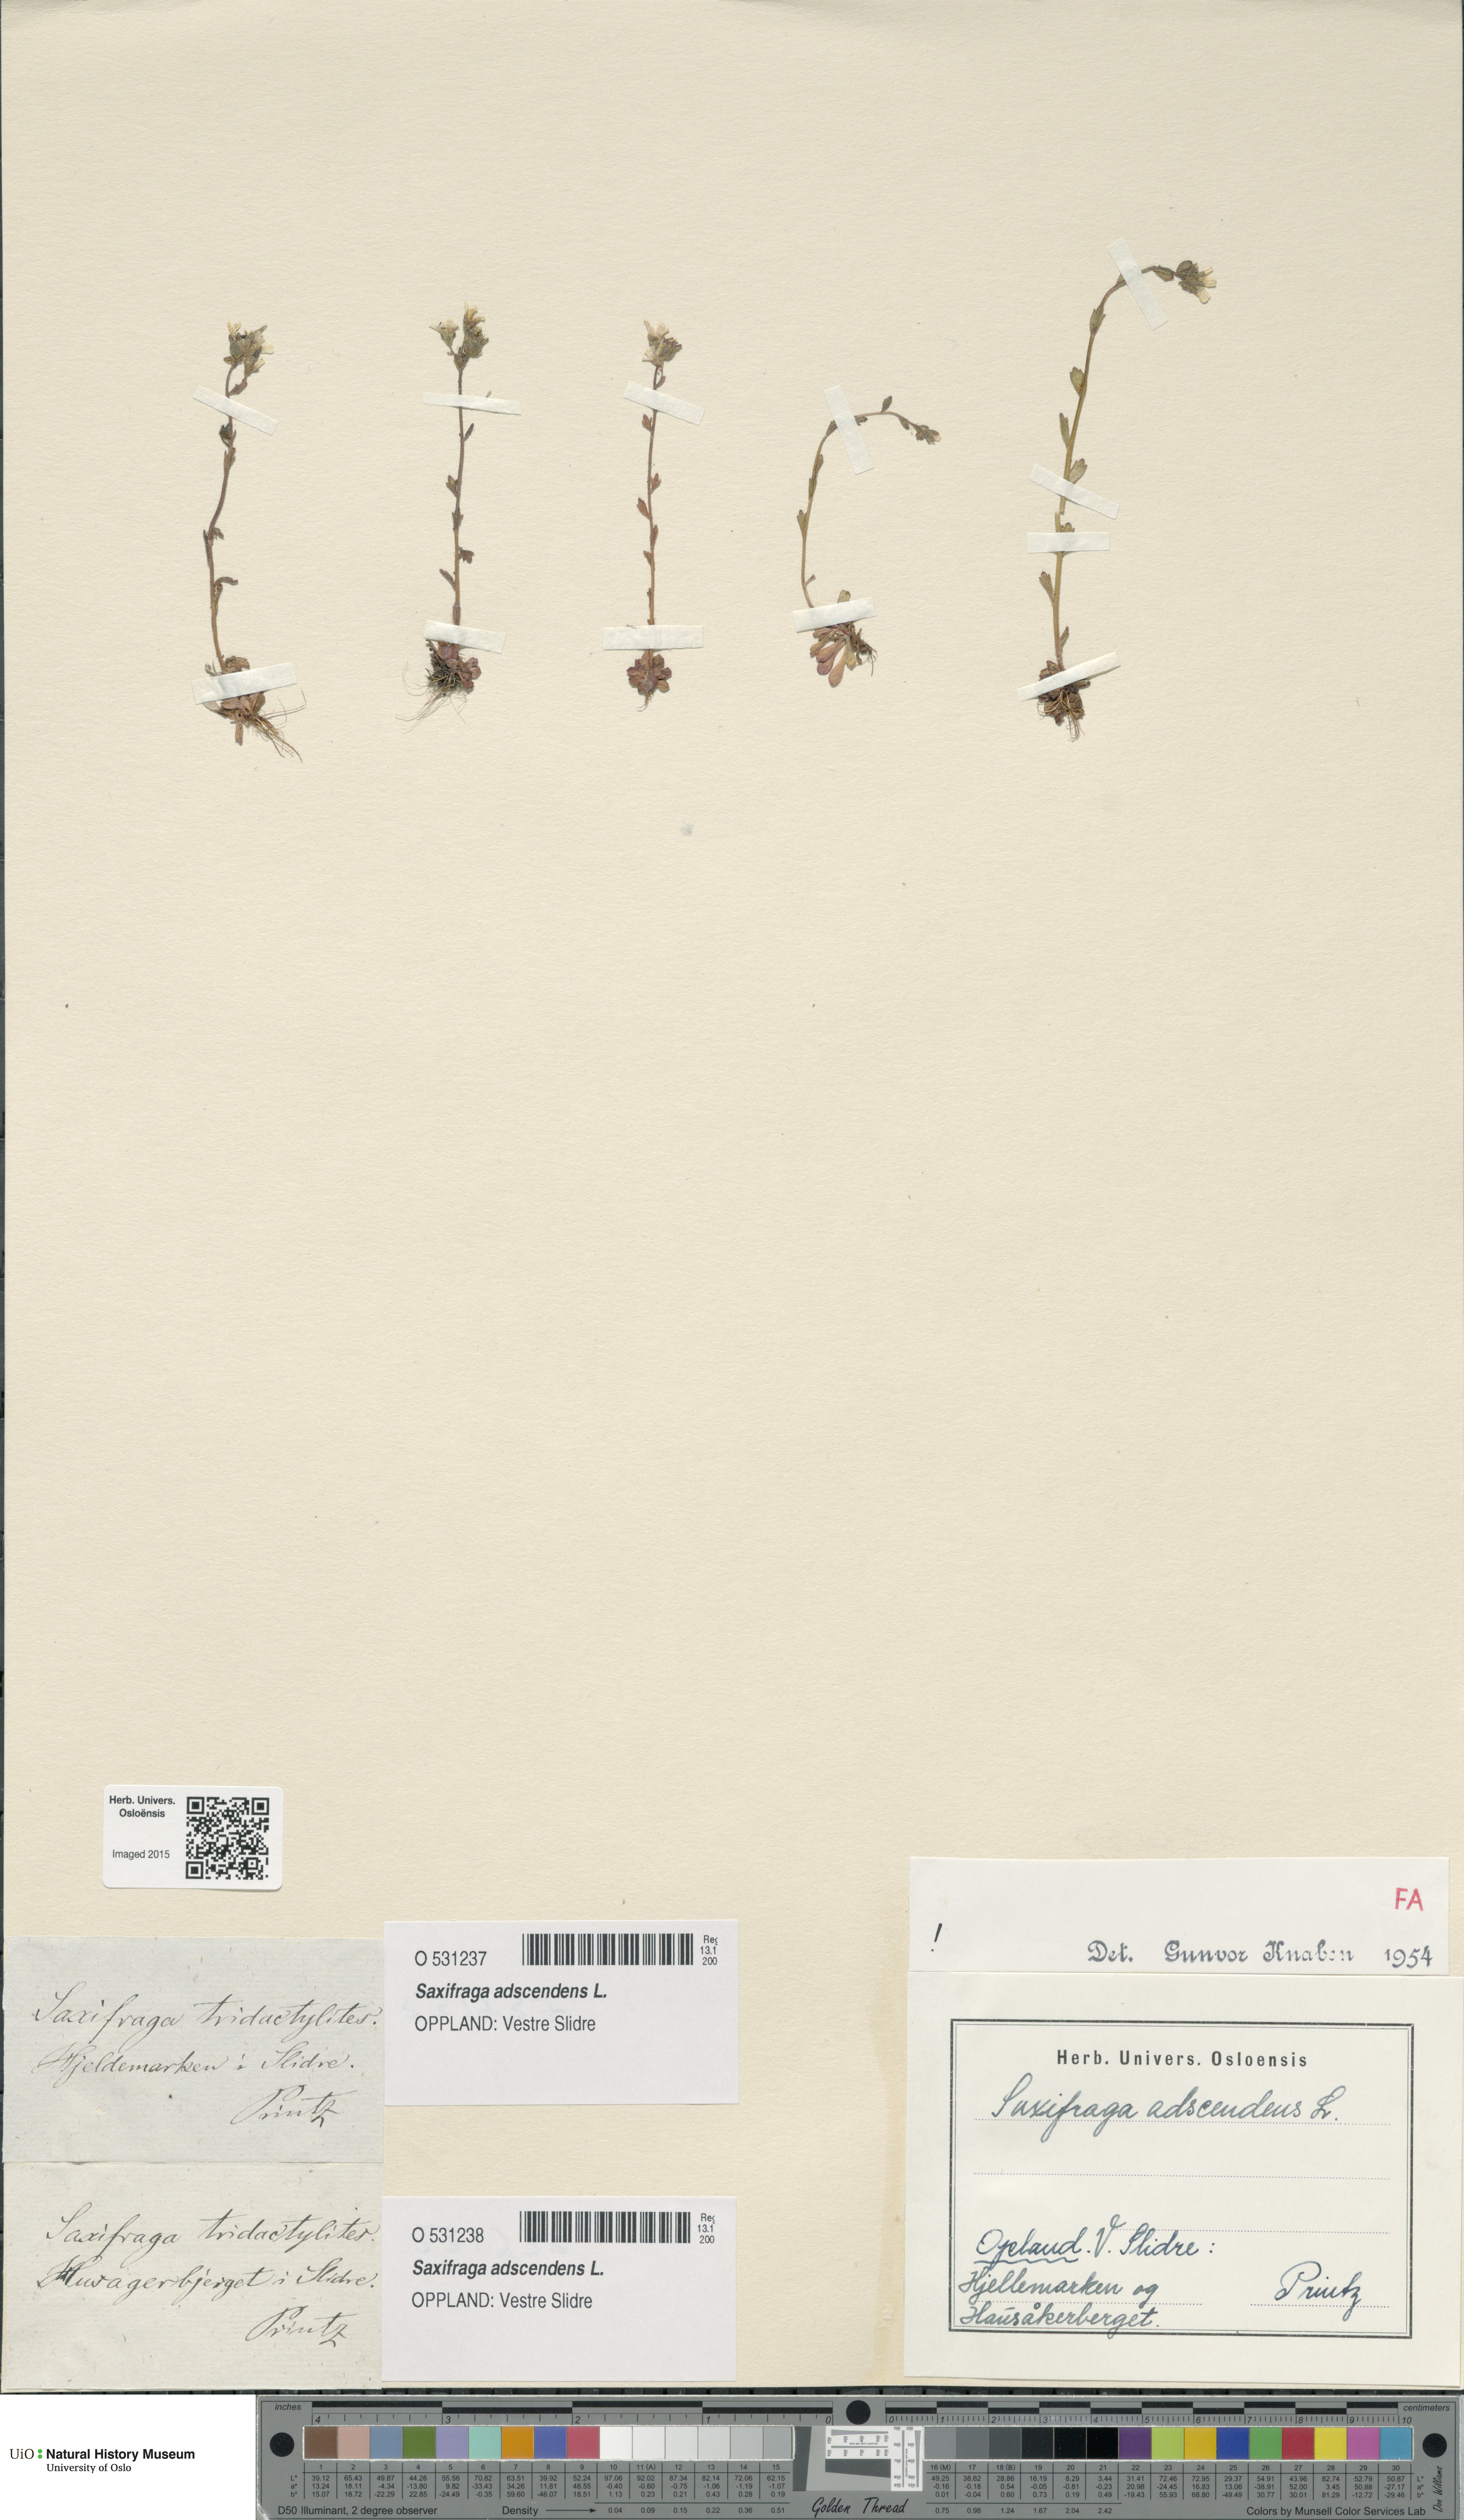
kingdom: Plantae
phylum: Tracheophyta
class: Magnoliopsida
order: Saxifragales
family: Saxifragaceae
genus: Saxifraga
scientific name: Saxifraga adscendens
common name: Ascending saxifrage
